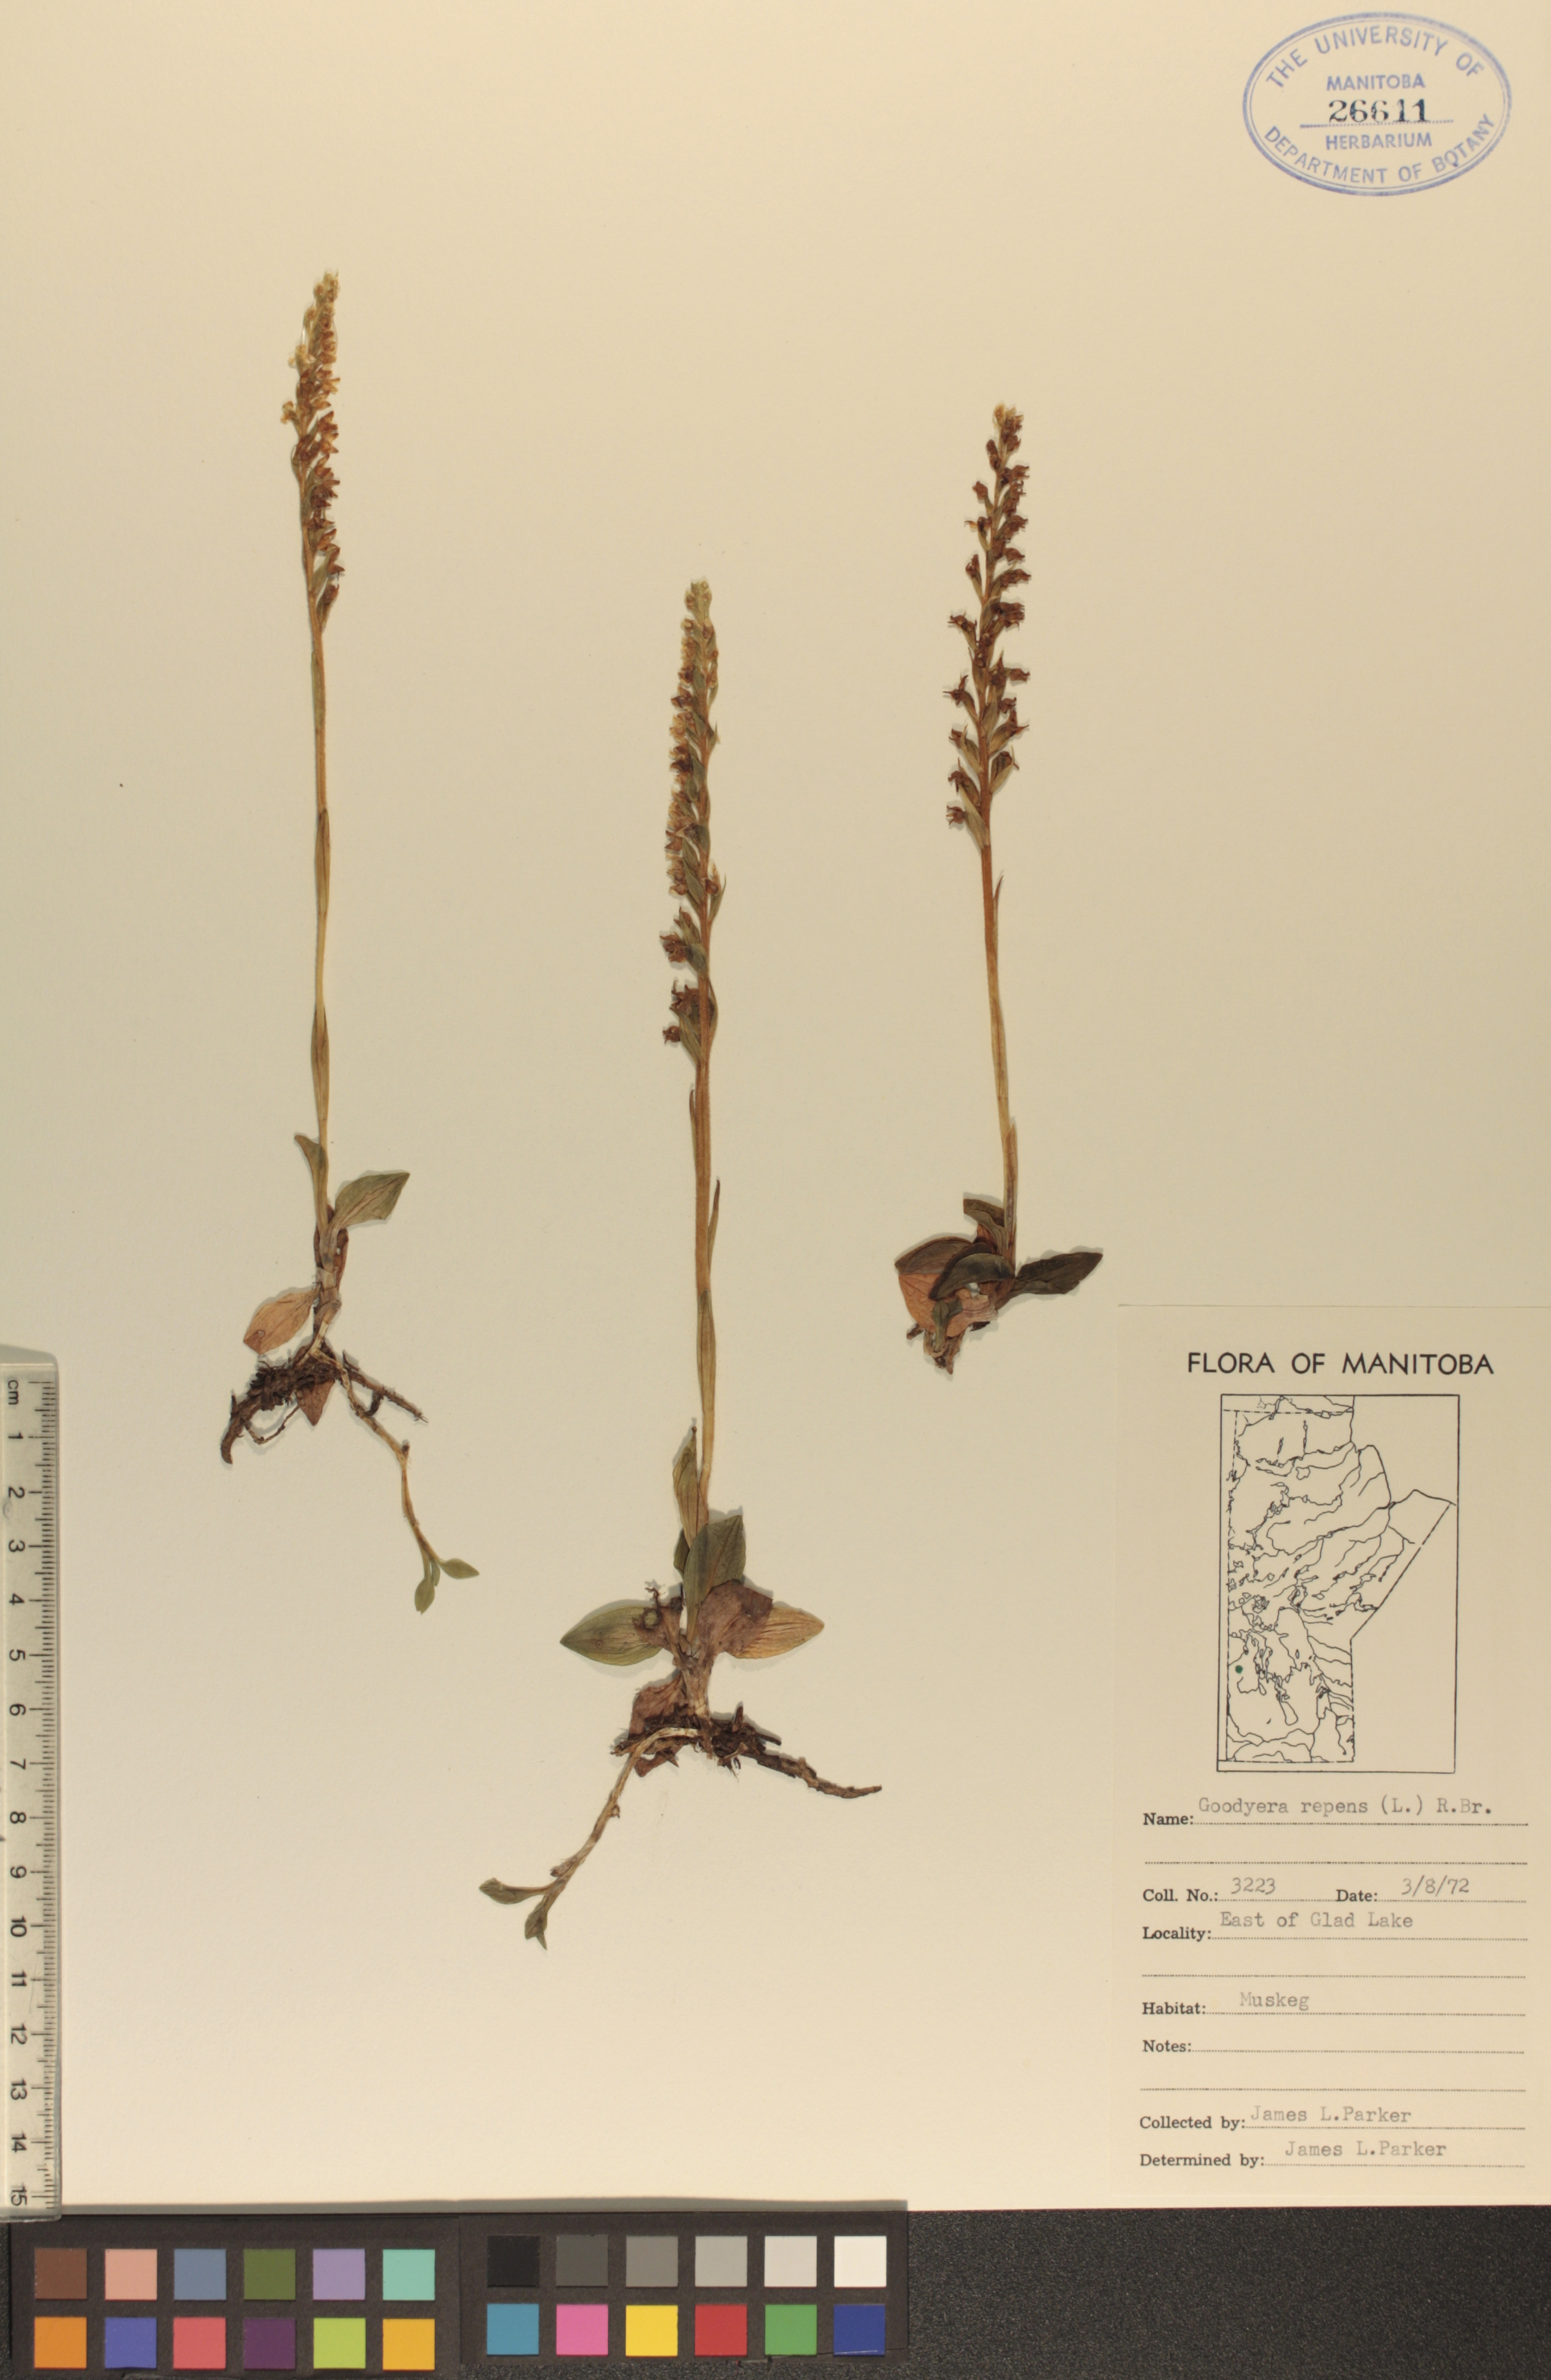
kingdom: Plantae
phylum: Tracheophyta
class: Liliopsida
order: Asparagales
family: Orchidaceae
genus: Goodyera
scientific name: Goodyera repens
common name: Creeping lady's-tresses
